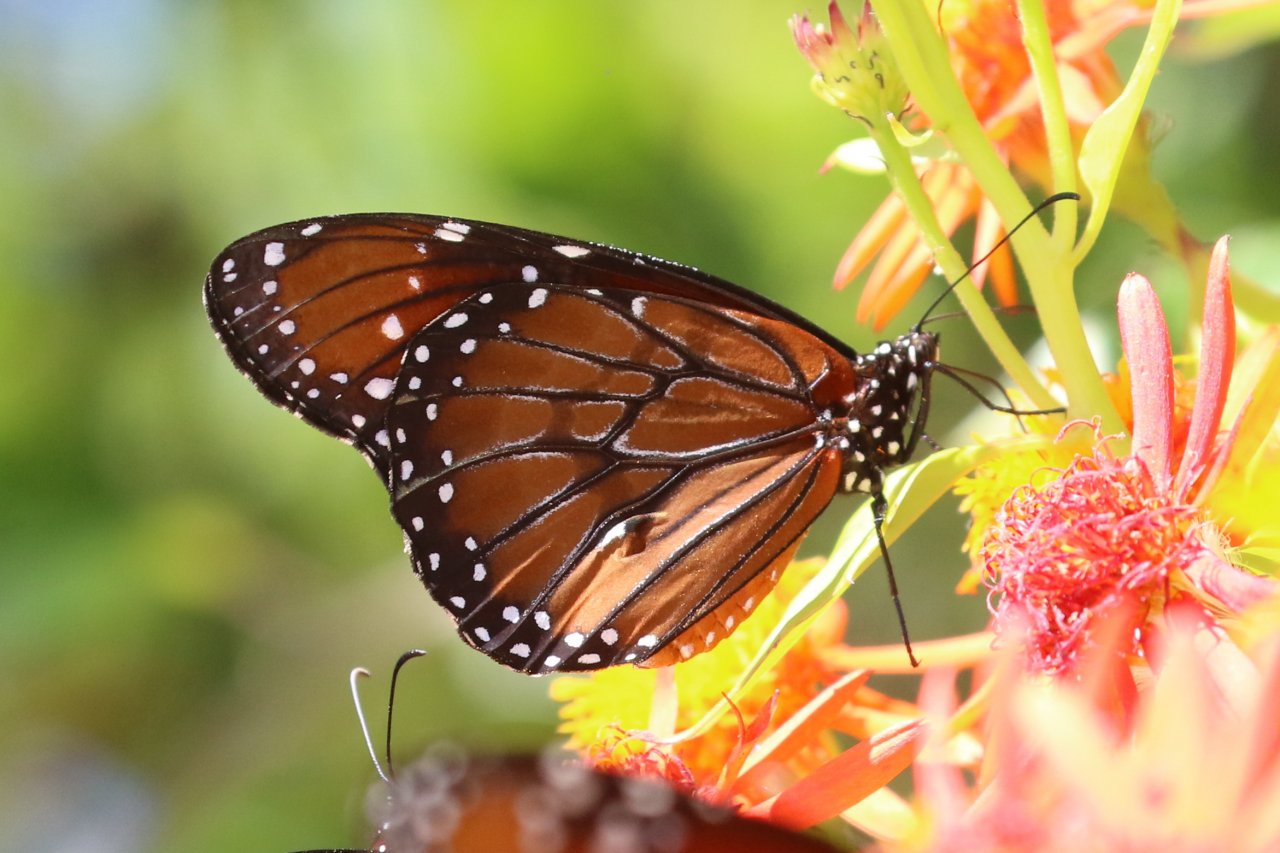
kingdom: Animalia
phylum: Arthropoda
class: Insecta
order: Lepidoptera
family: Nymphalidae
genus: Danaus
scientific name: Danaus eresimus
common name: Soldier
